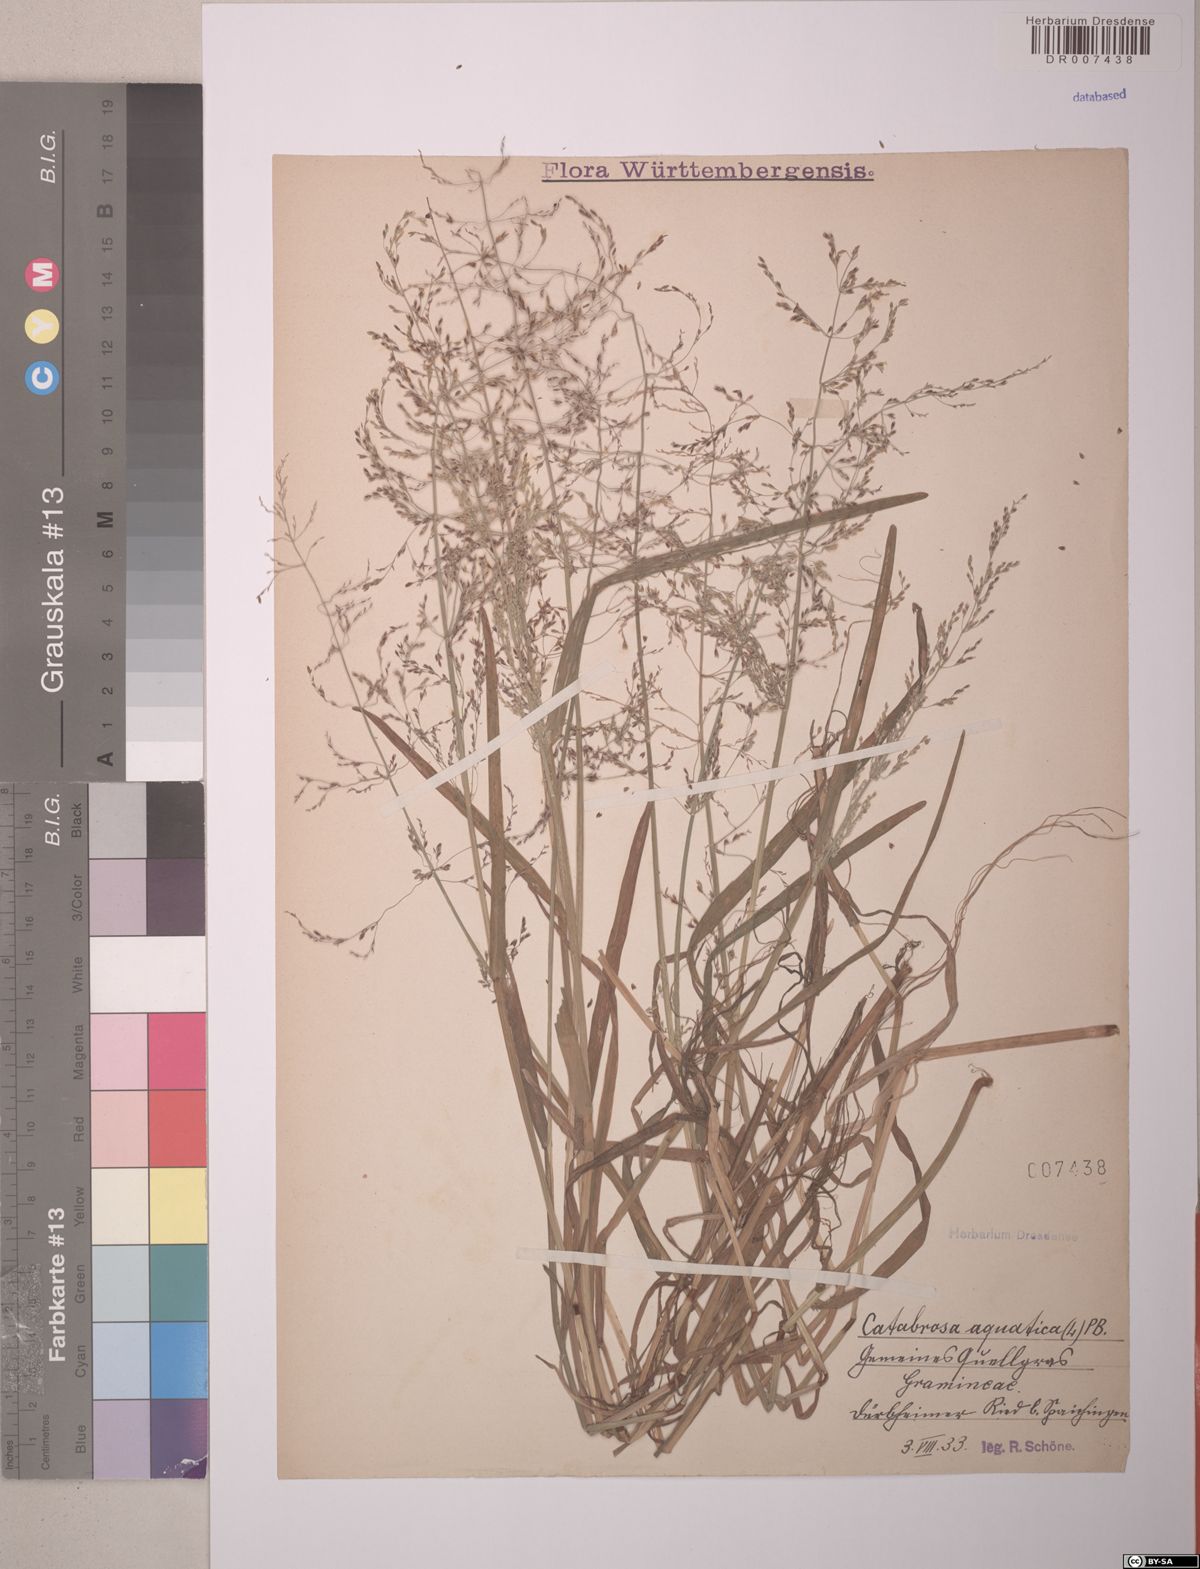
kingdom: Plantae
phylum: Tracheophyta
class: Liliopsida
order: Poales
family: Poaceae
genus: Catabrosa
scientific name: Catabrosa aquatica
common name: Whorl-grass
